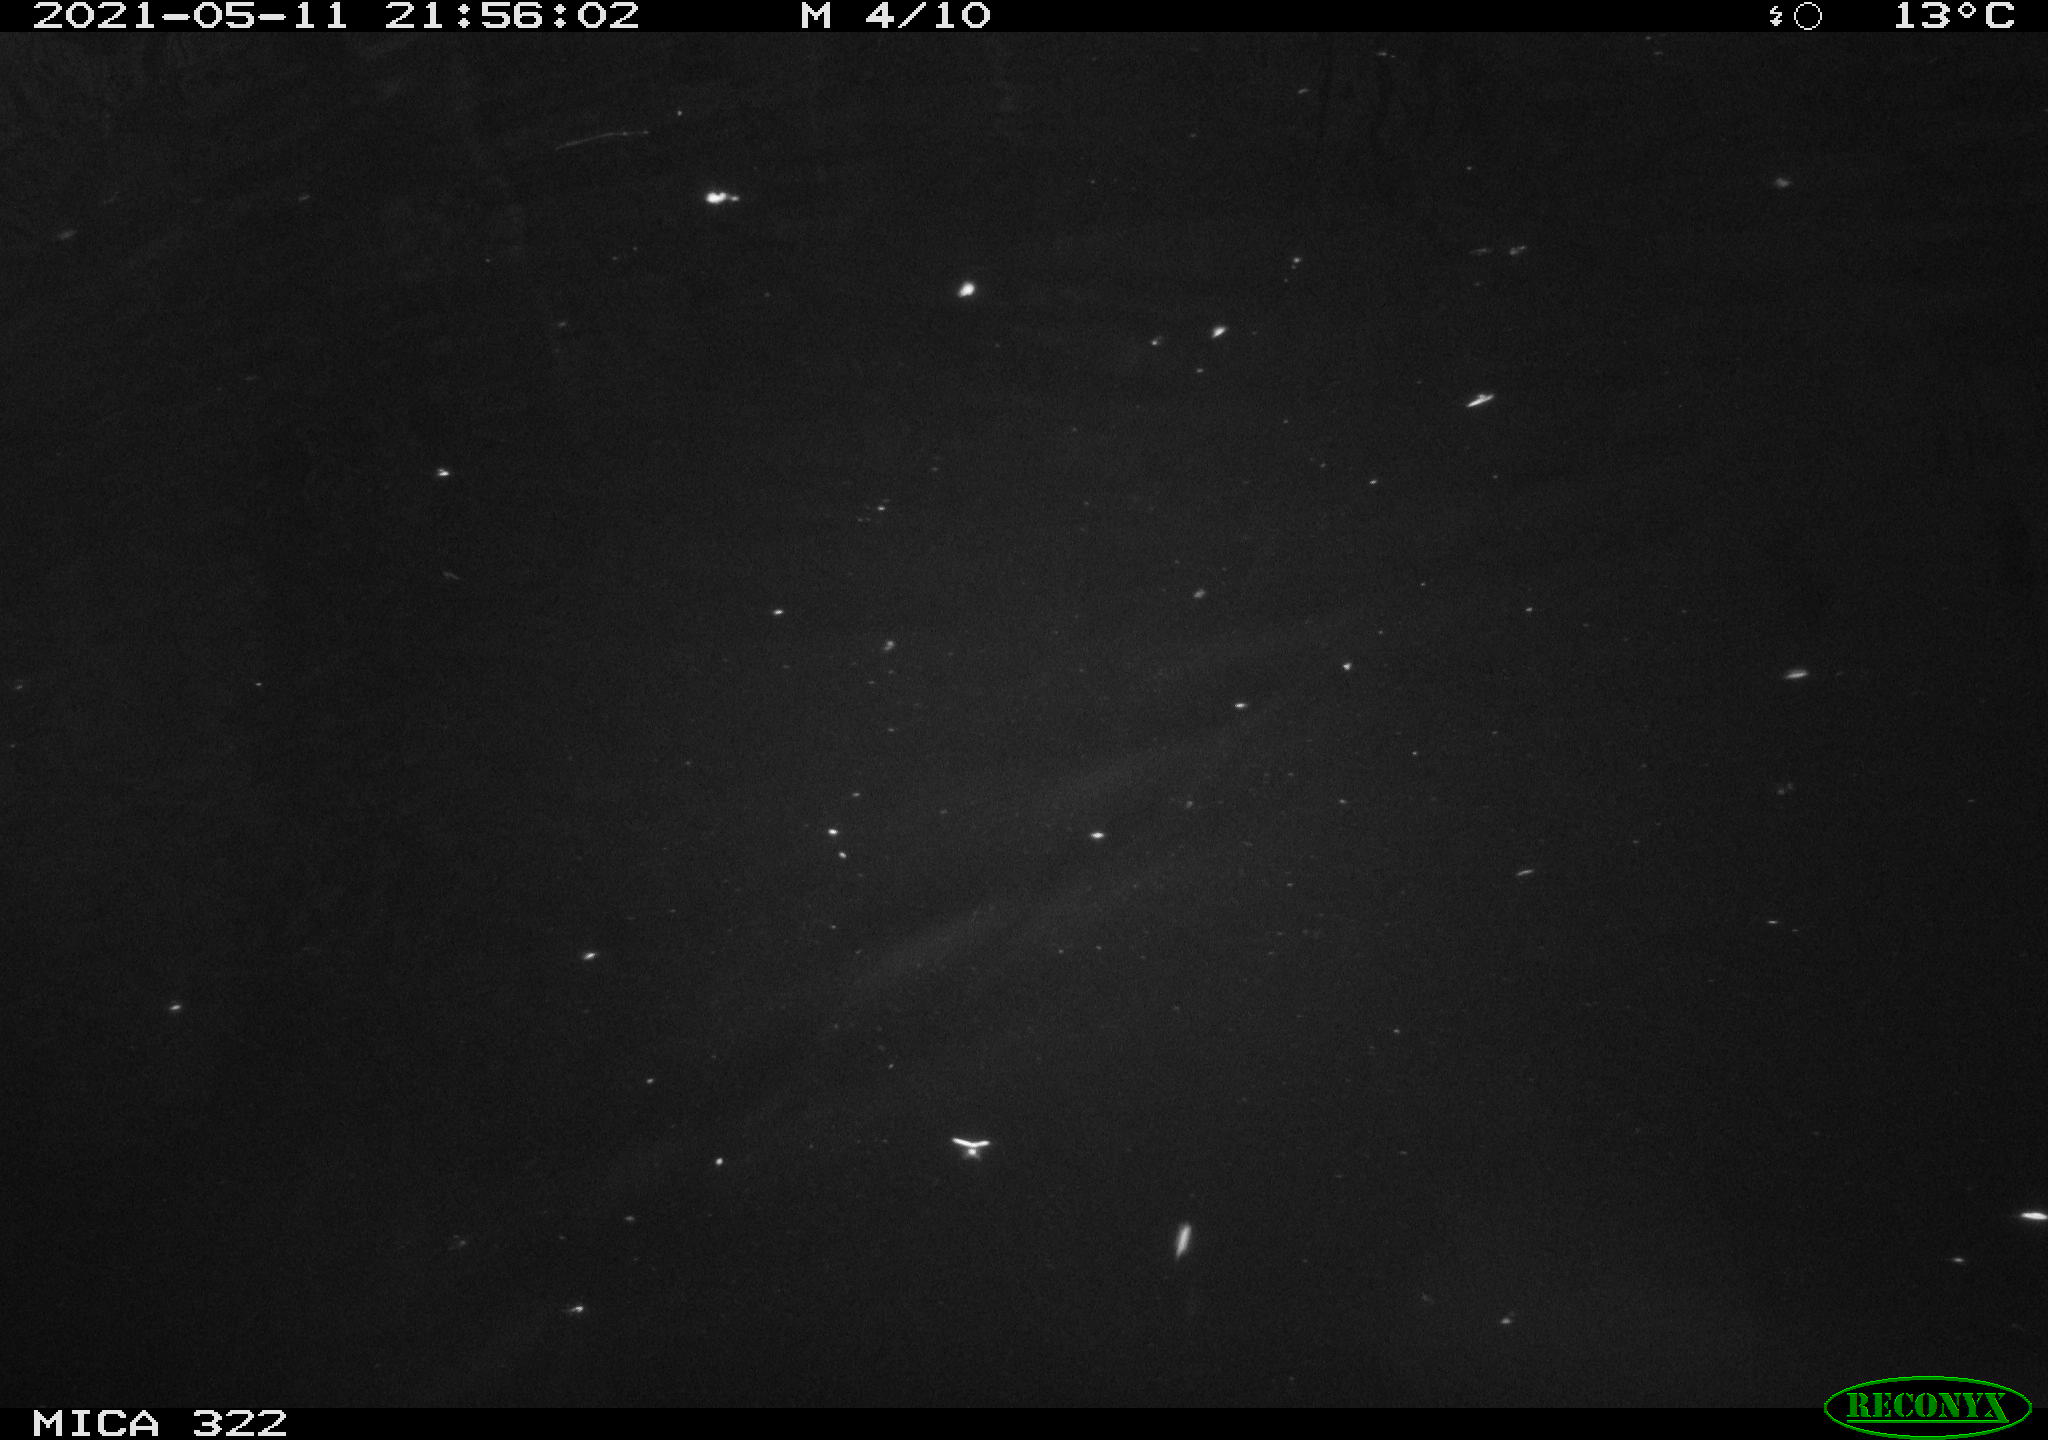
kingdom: Animalia
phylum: Chordata
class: Mammalia
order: Rodentia
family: Muridae
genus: Rattus
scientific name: Rattus norvegicus
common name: Brown rat
